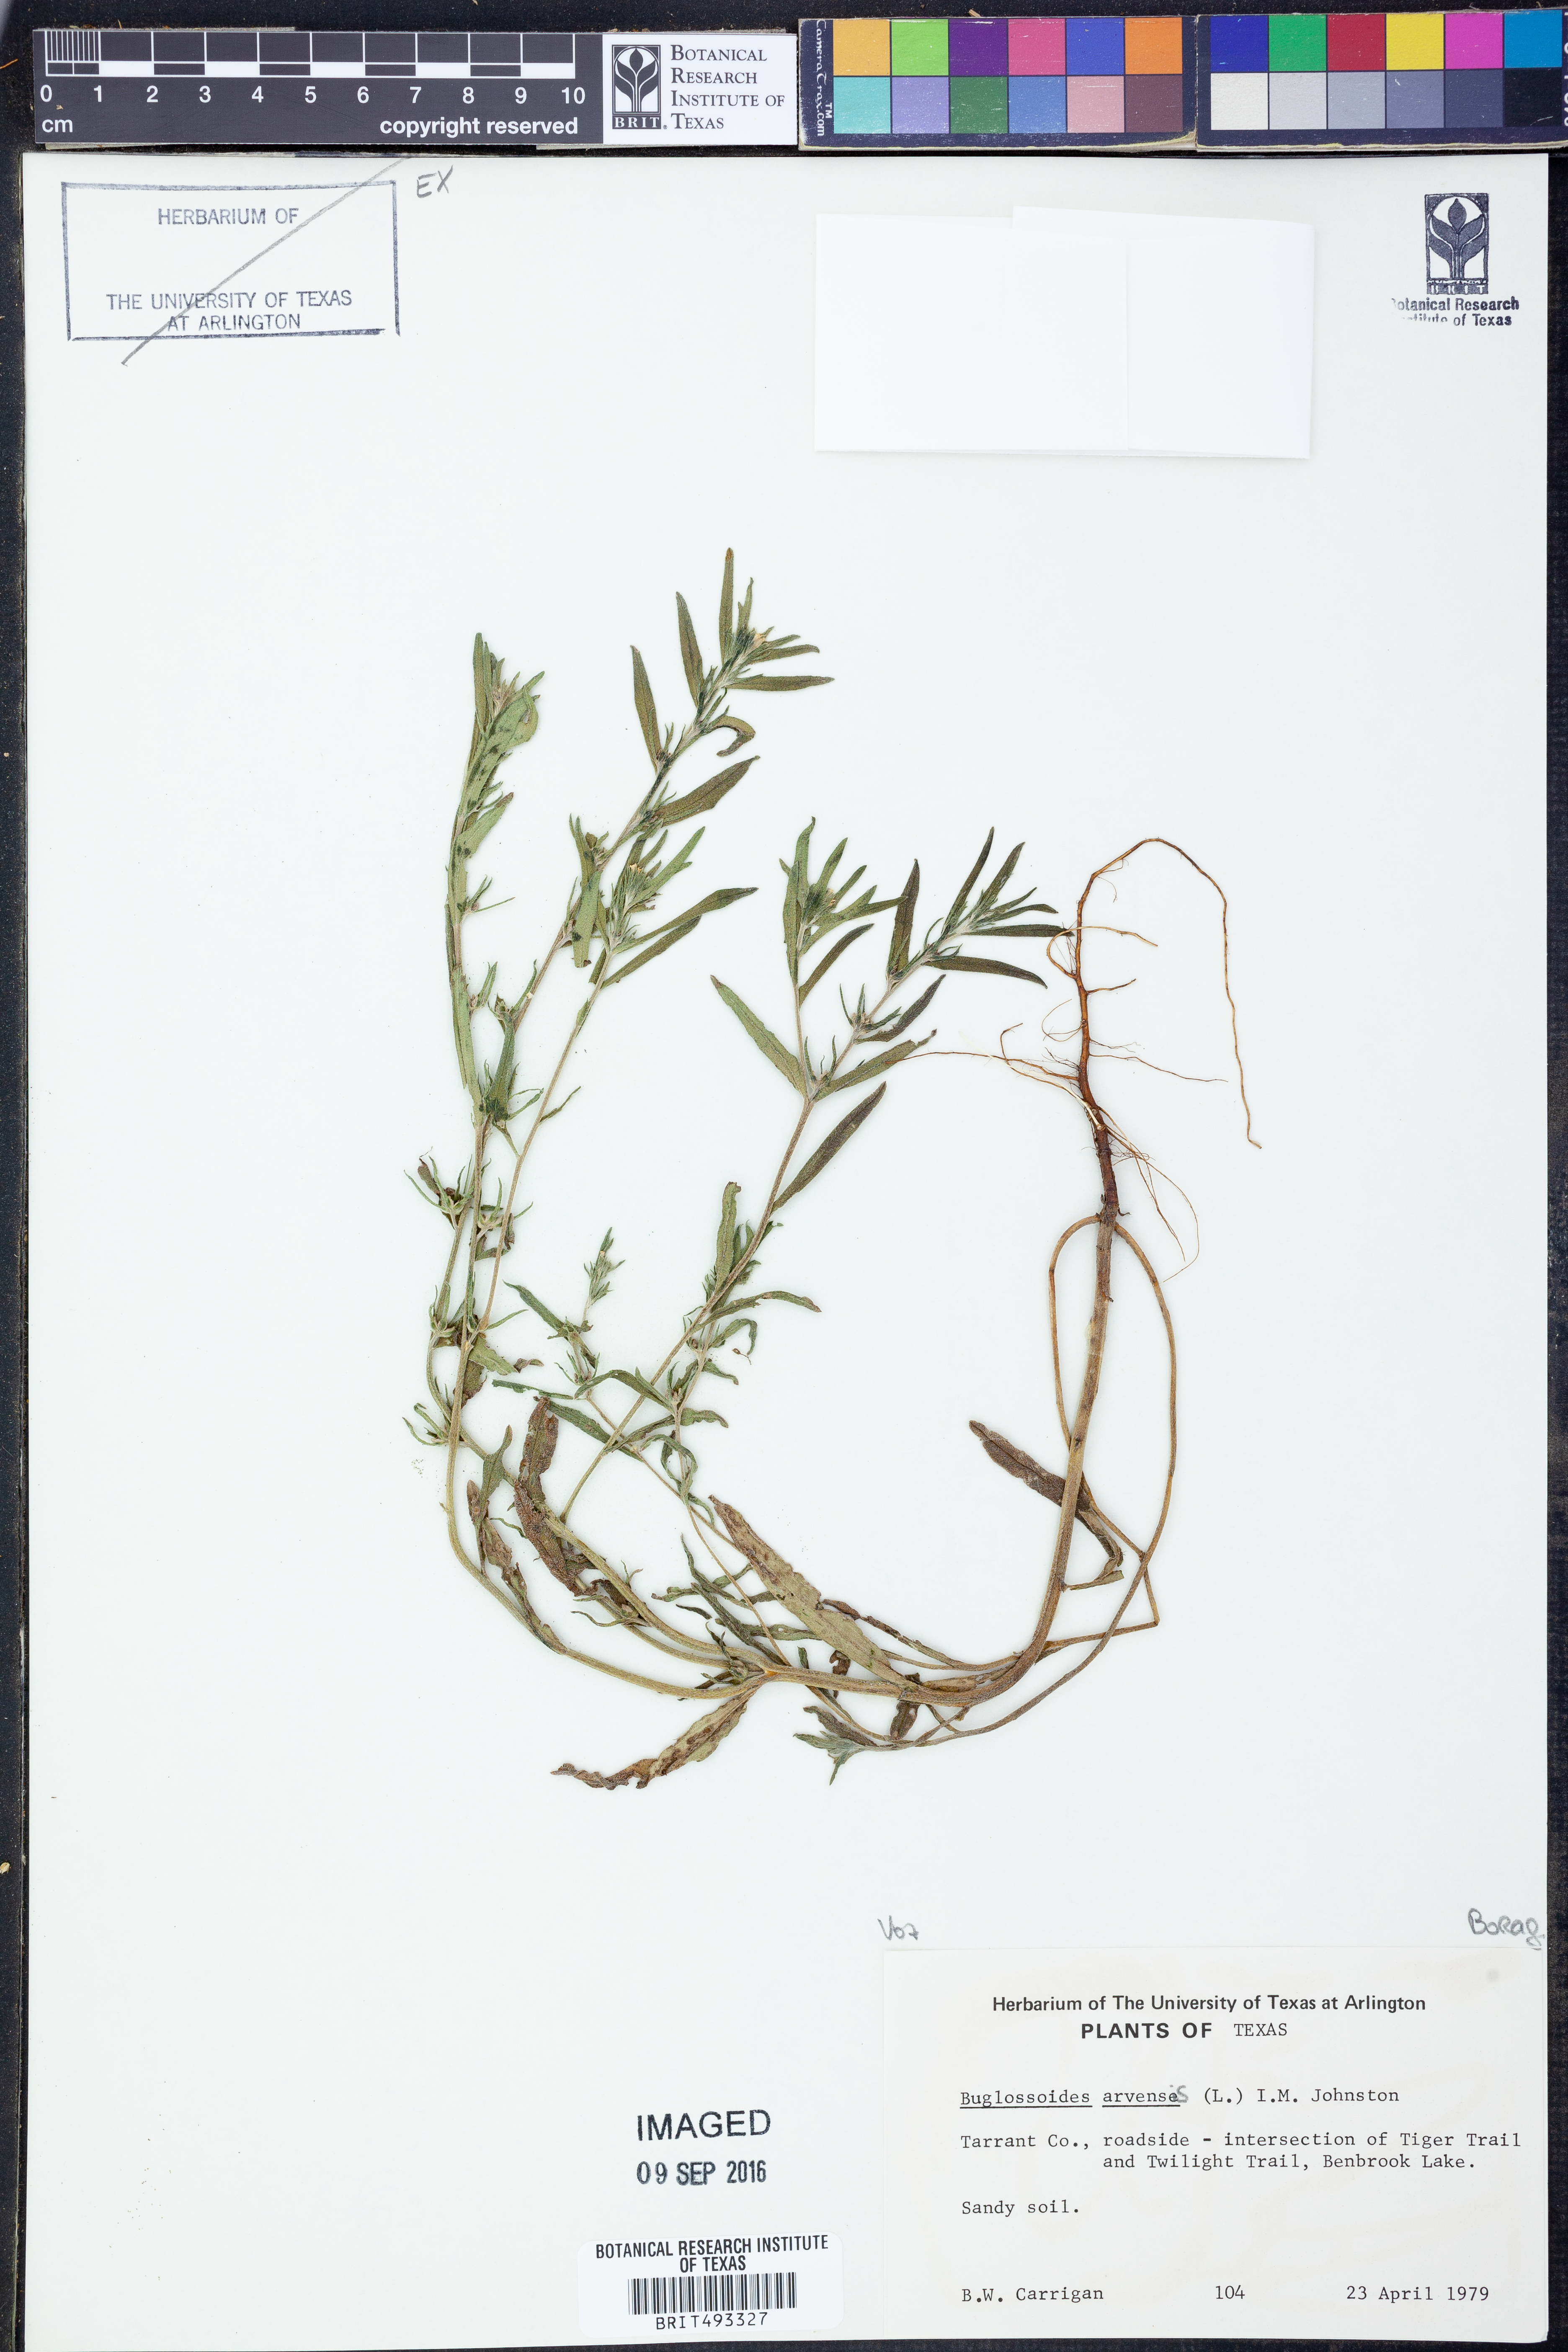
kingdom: Plantae
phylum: Tracheophyta
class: Magnoliopsida
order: Boraginales
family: Boraginaceae
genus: Buglossoides
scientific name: Buglossoides arvensis
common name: Corn gromwell
